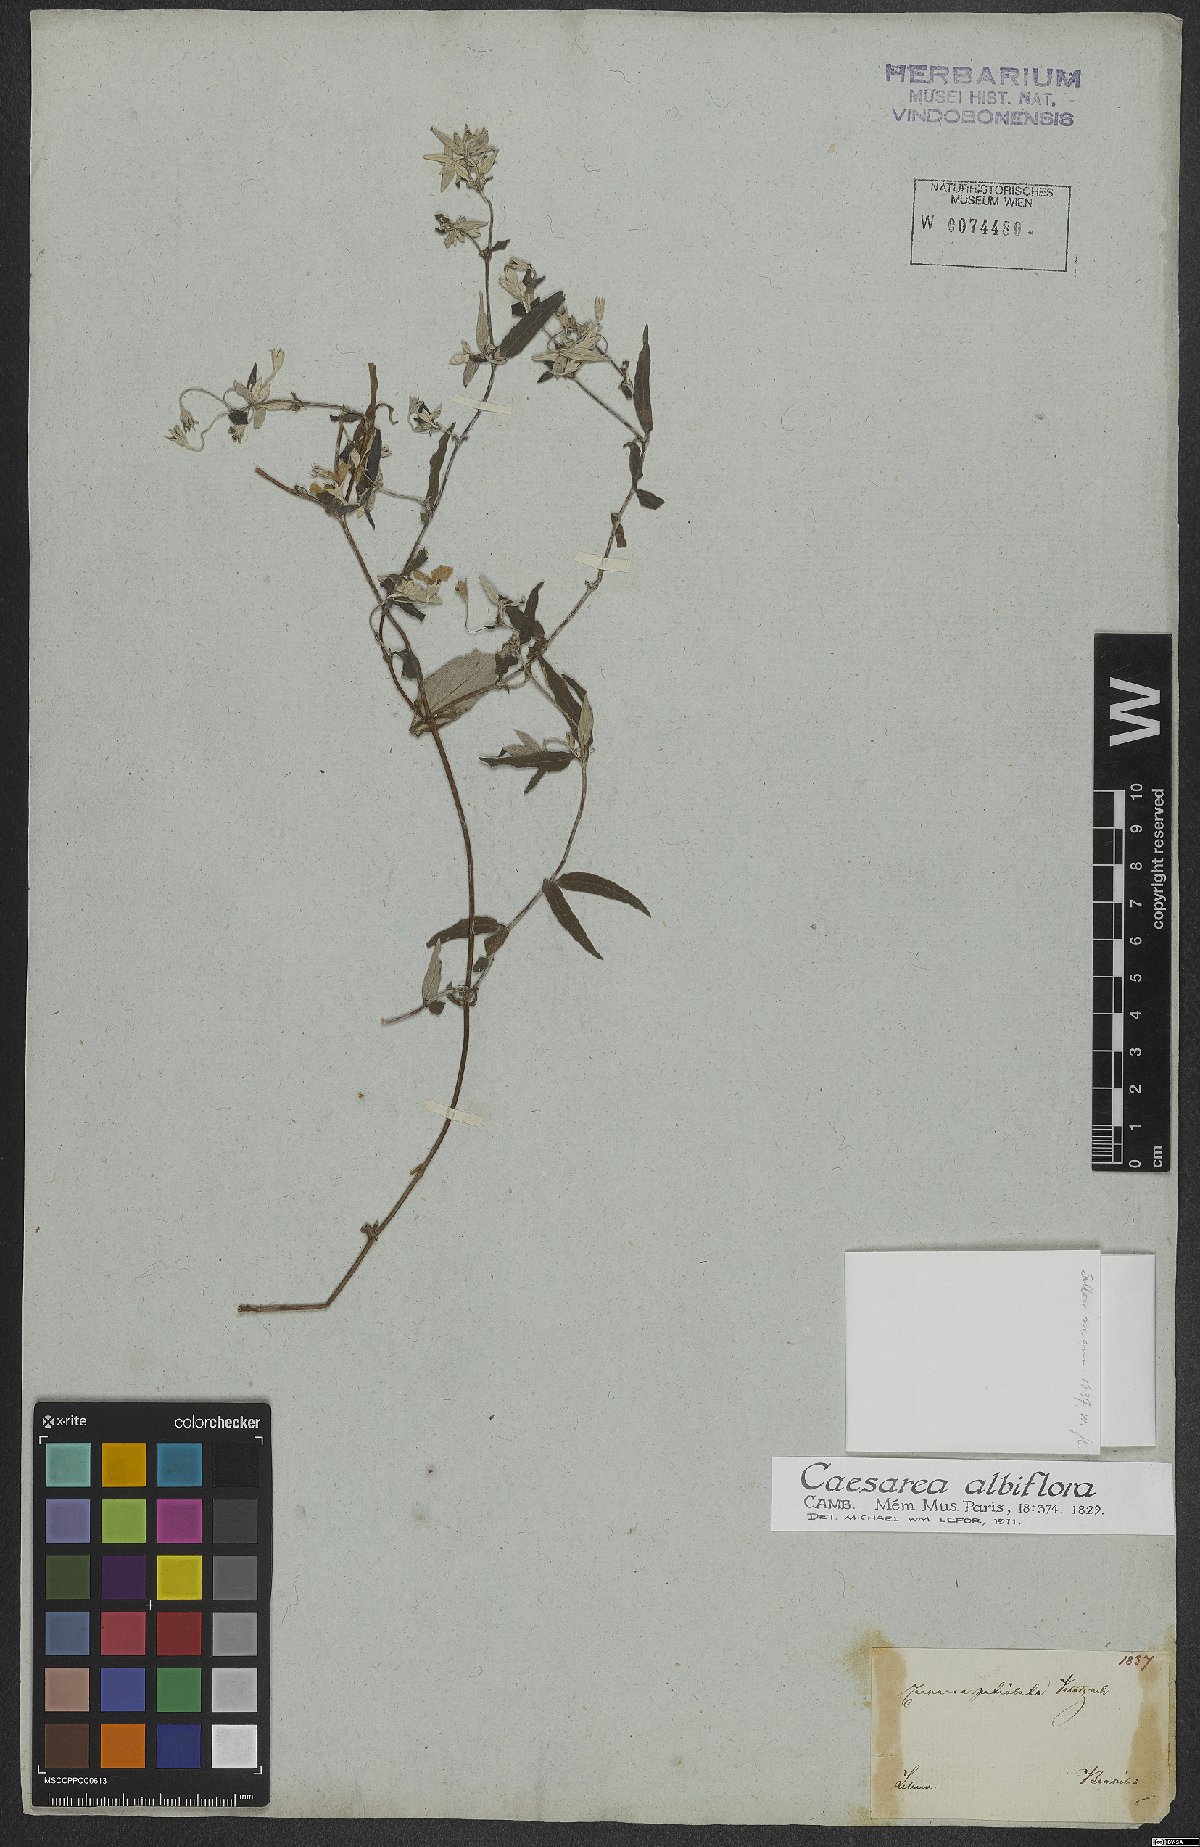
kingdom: Plantae
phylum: Tracheophyta
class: Magnoliopsida
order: Geraniales
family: Vivianiaceae
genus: Viviania
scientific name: Viviania albiflora
